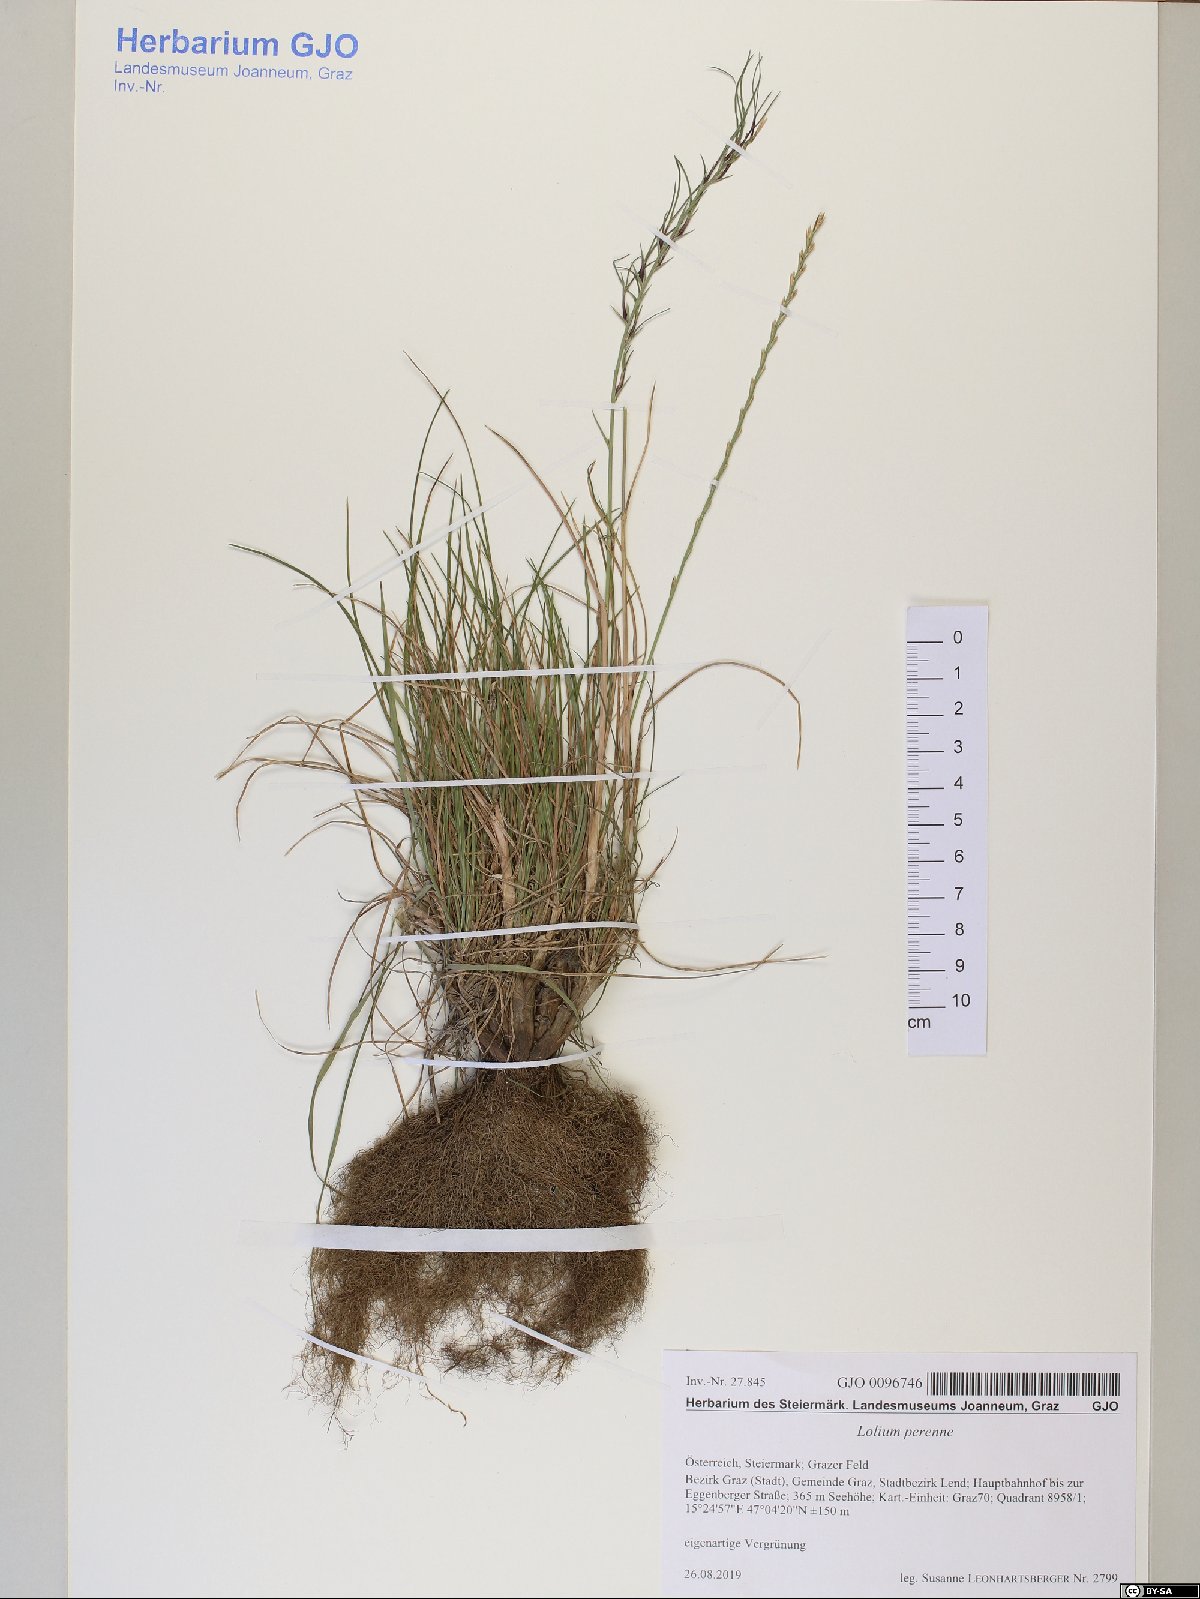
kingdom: Plantae
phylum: Tracheophyta
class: Liliopsida
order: Poales
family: Poaceae
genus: Lolium
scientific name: Lolium perenne
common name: Perennial ryegrass
